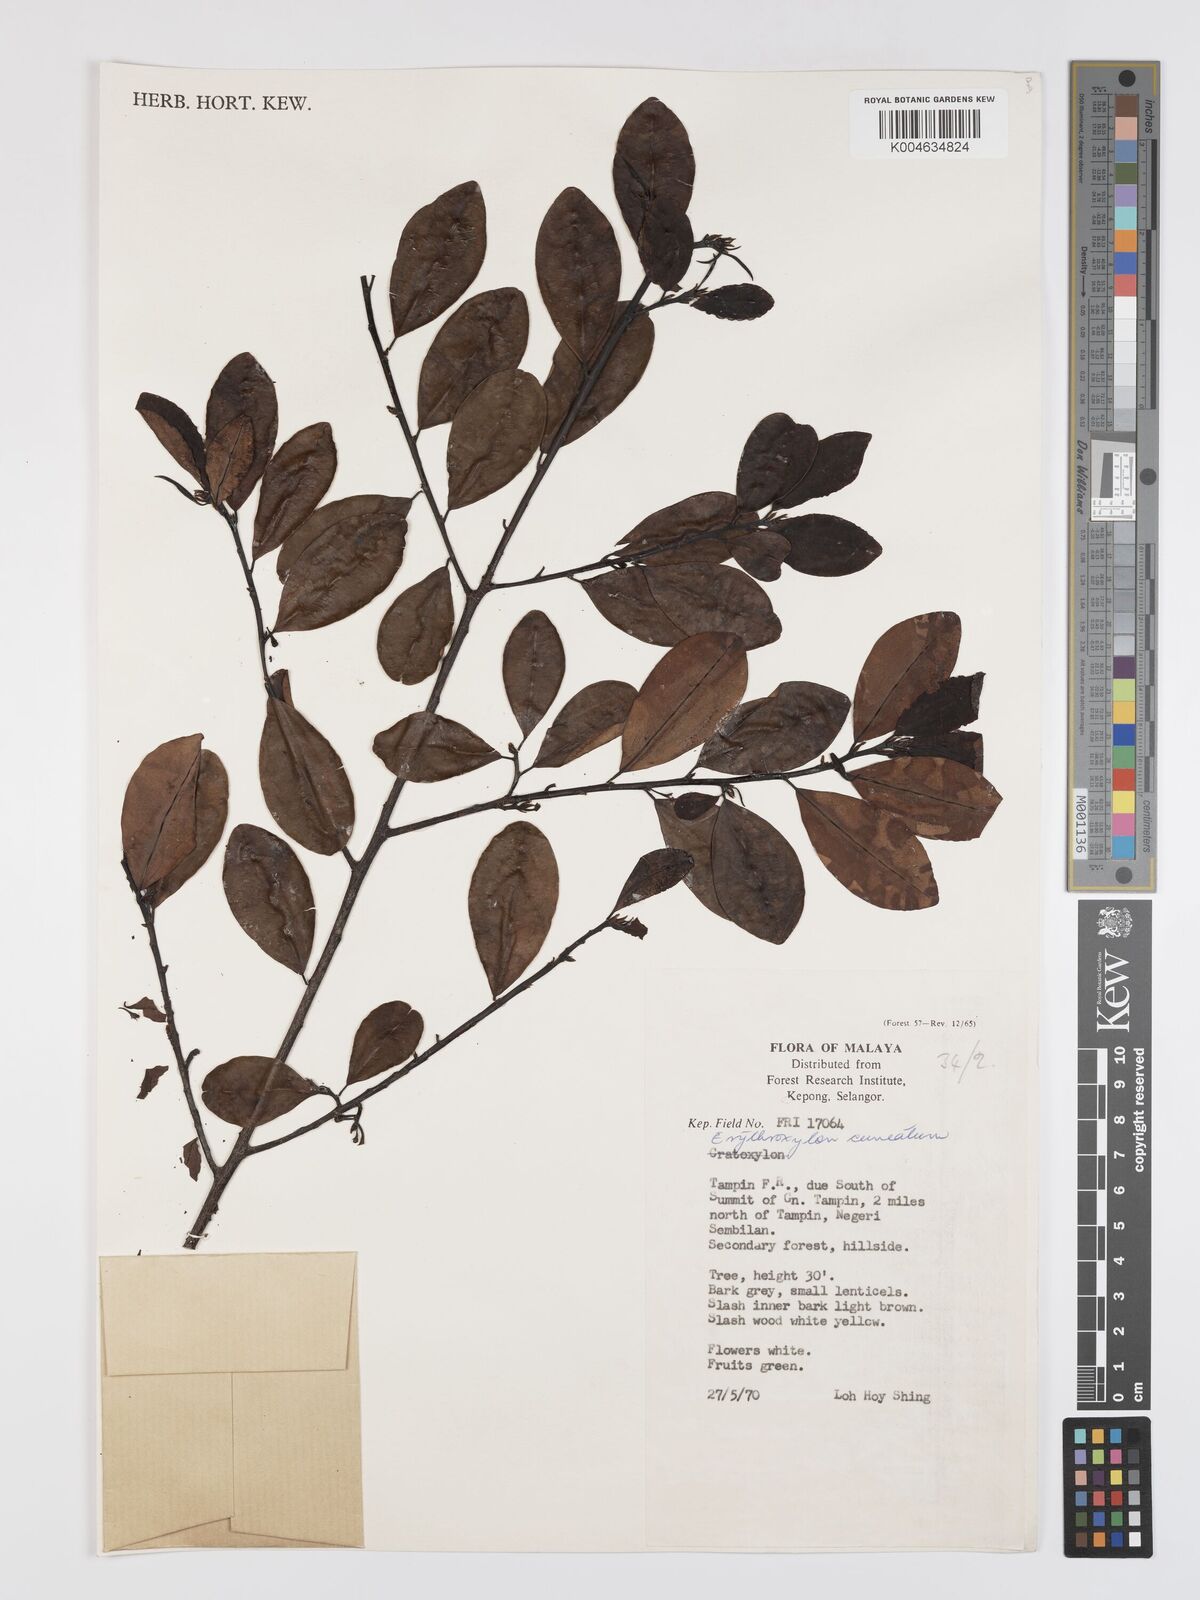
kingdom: Plantae
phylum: Tracheophyta
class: Magnoliopsida
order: Malpighiales
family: Erythroxylaceae
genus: Erythroxylum
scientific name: Erythroxylum cuneatum
